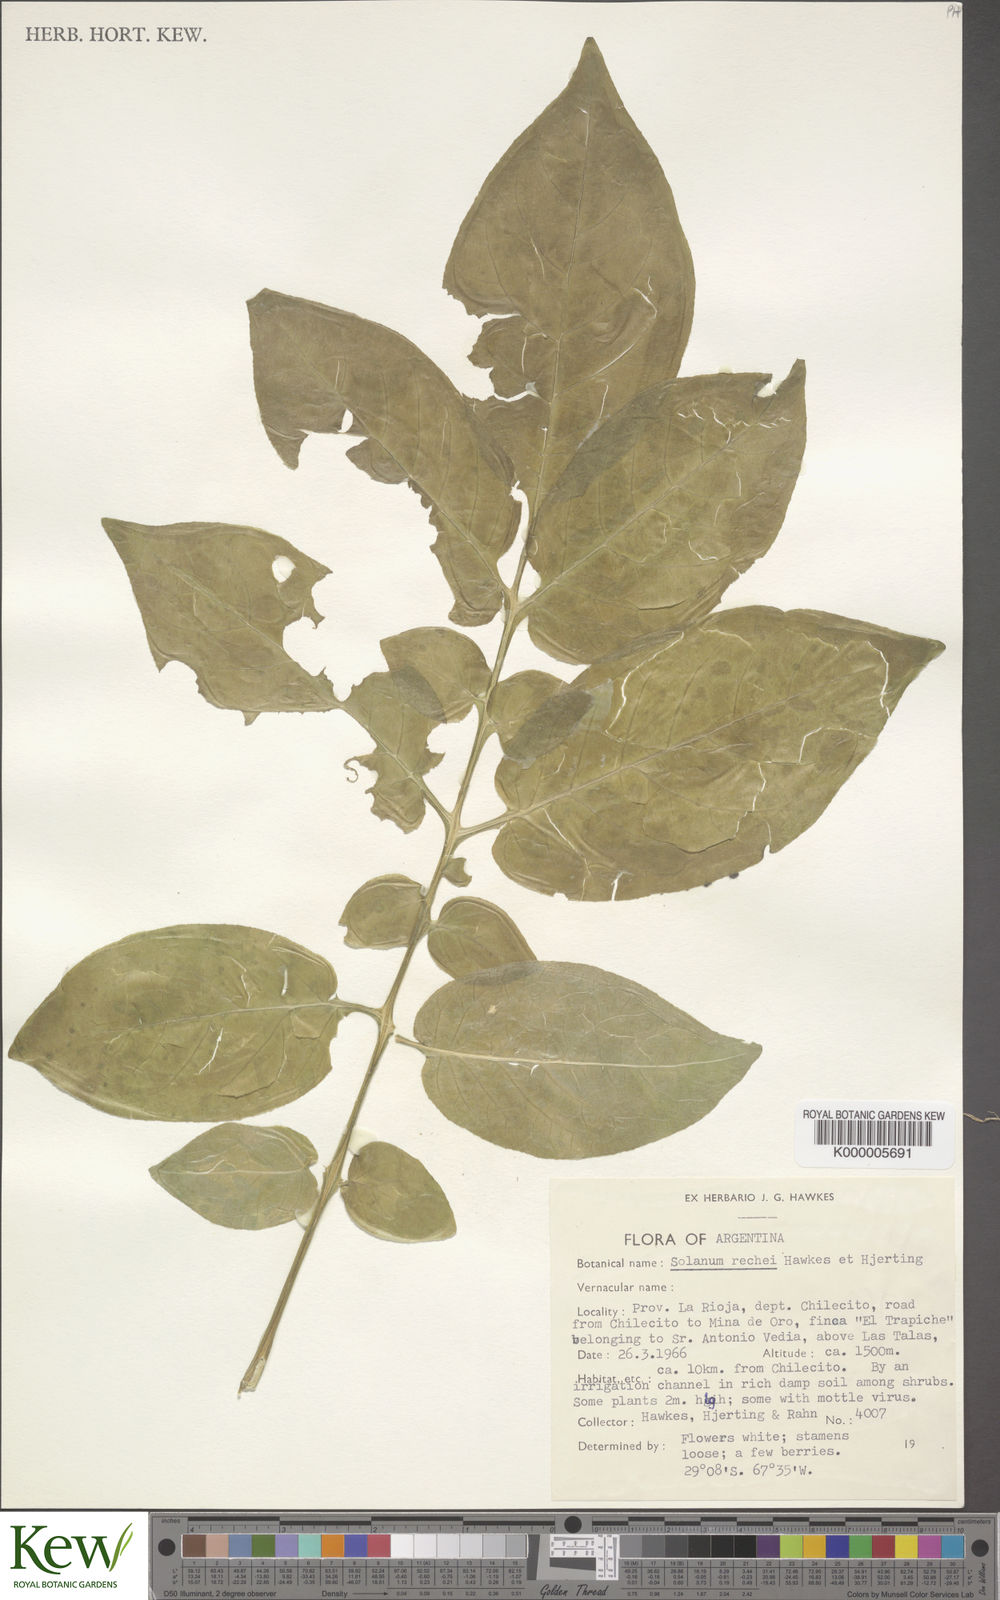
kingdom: Plantae
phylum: Tracheophyta
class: Magnoliopsida
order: Solanales
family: Solanaceae
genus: Solanum
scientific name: Solanum rechei
